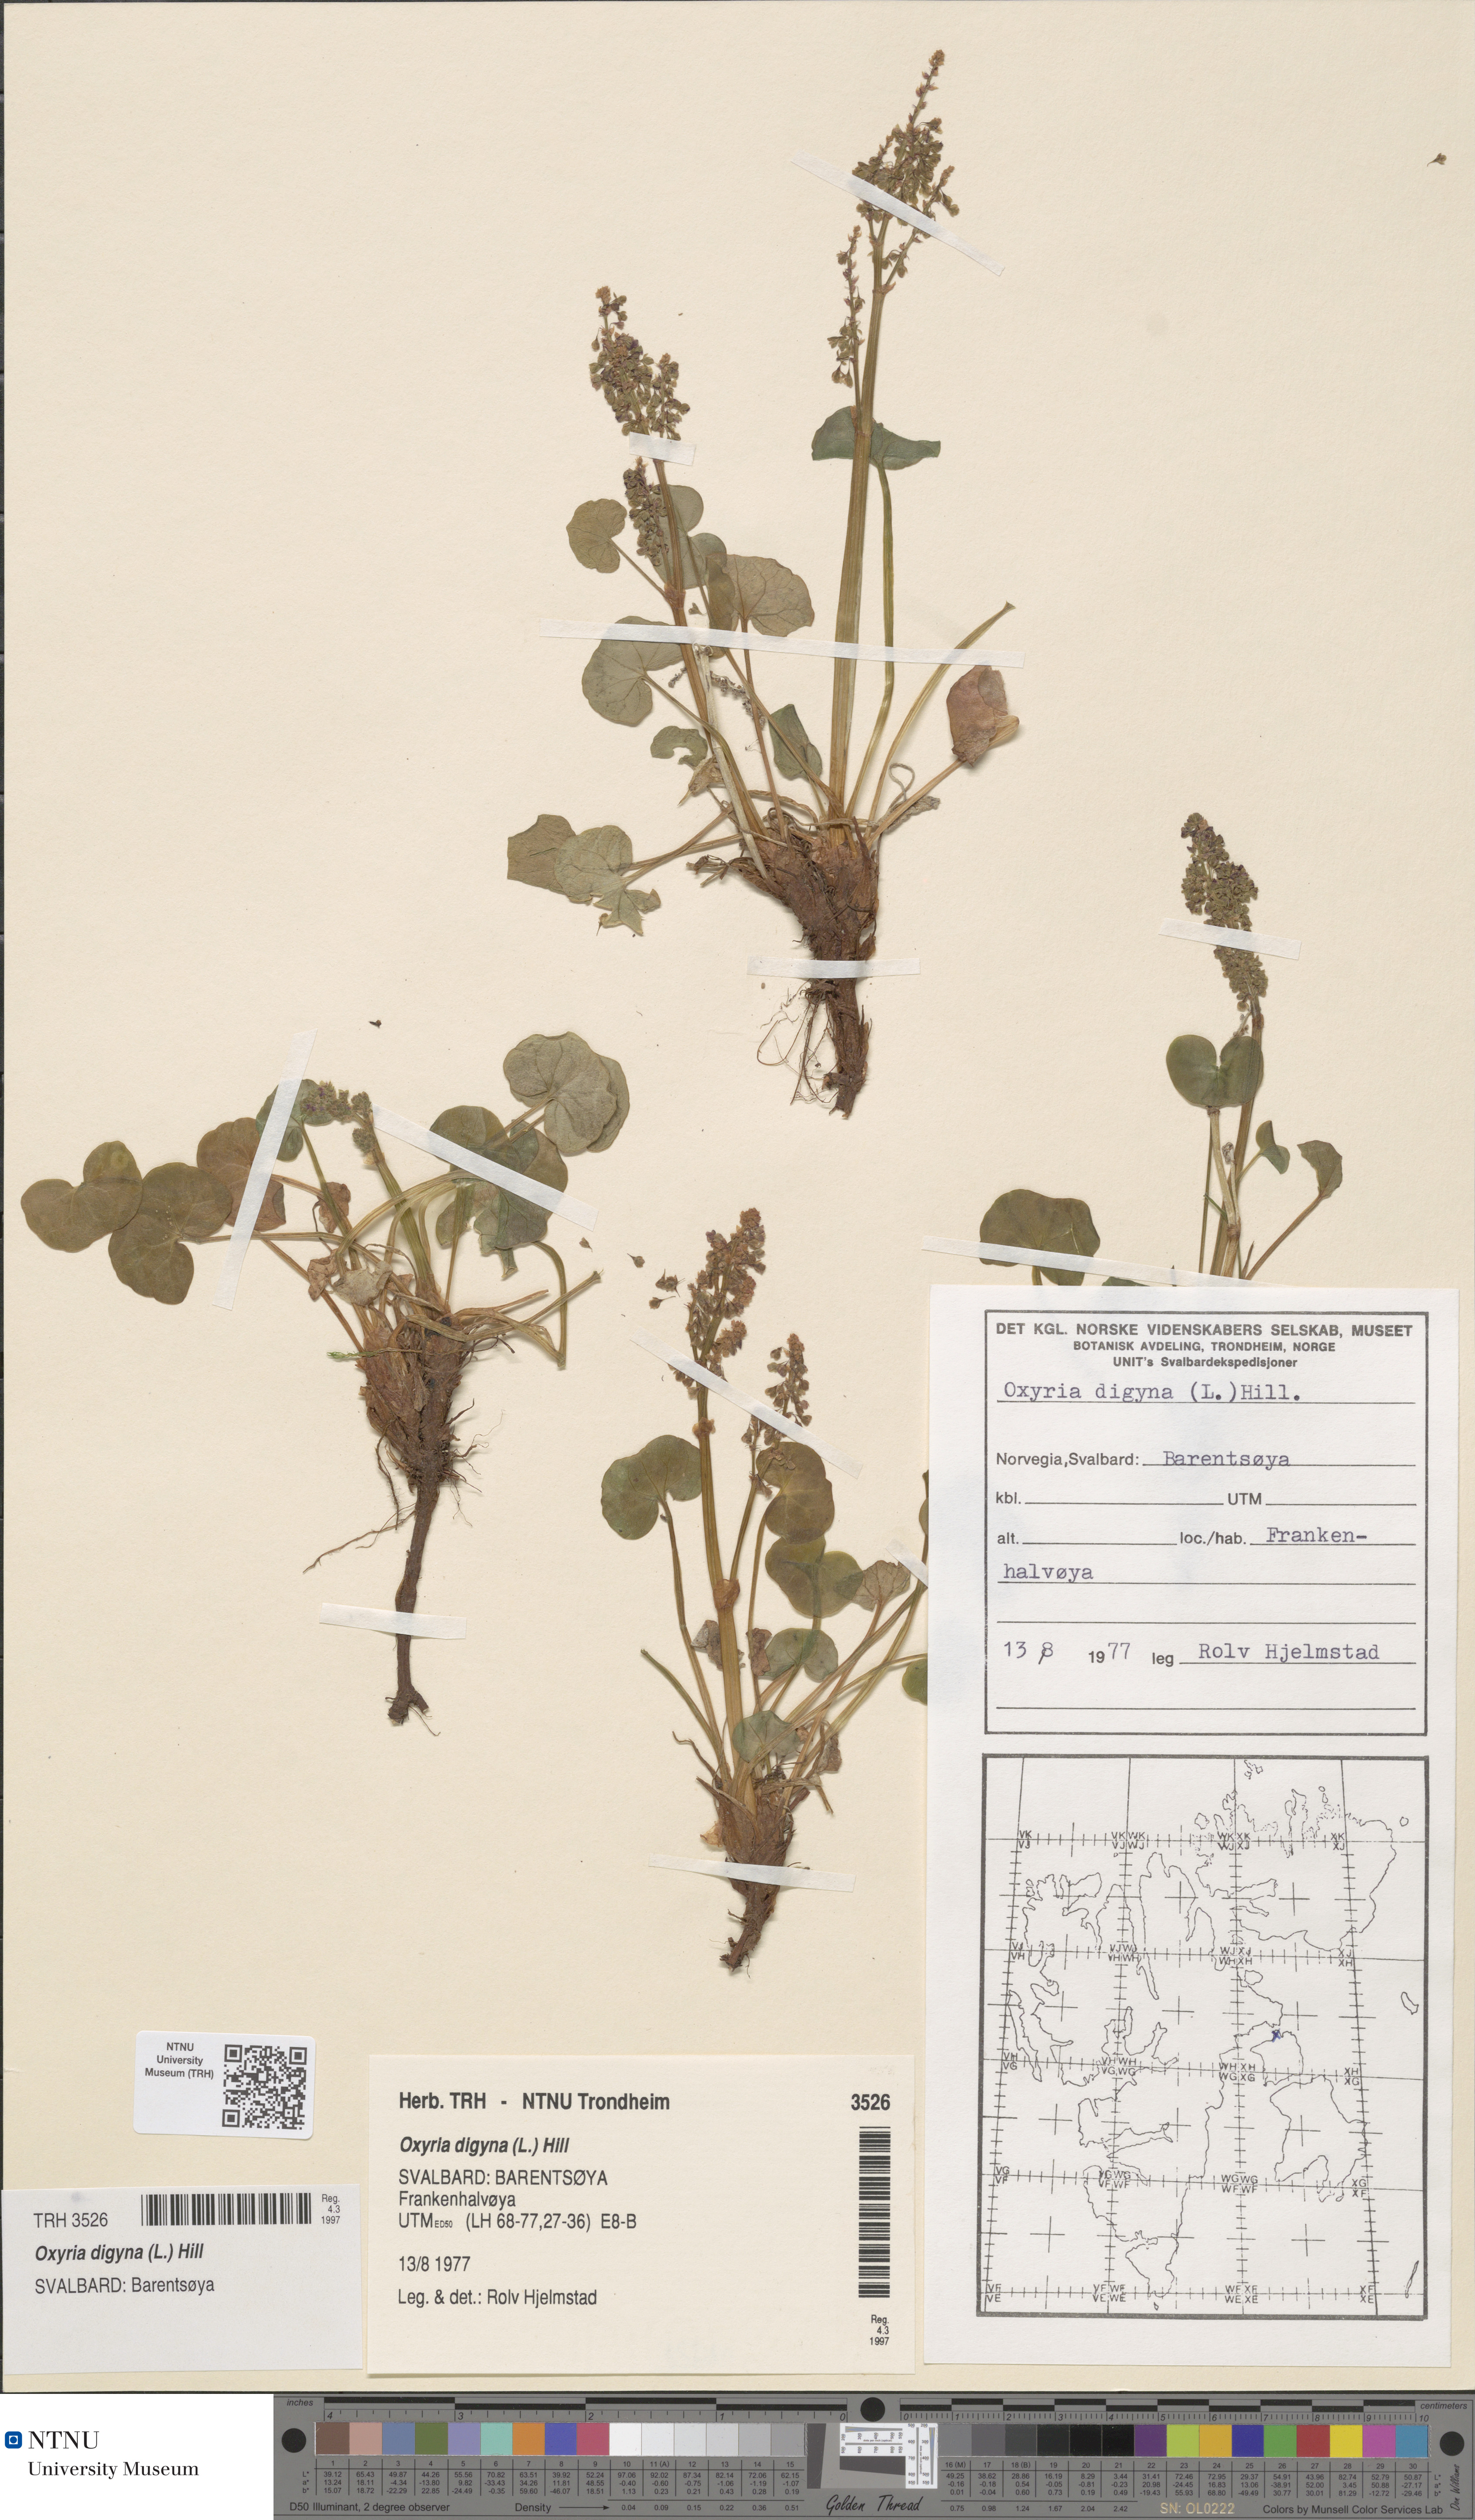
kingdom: Plantae
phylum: Tracheophyta
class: Magnoliopsida
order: Caryophyllales
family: Polygonaceae
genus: Oxyria
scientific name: Oxyria digyna
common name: Alpine mountain-sorrel
